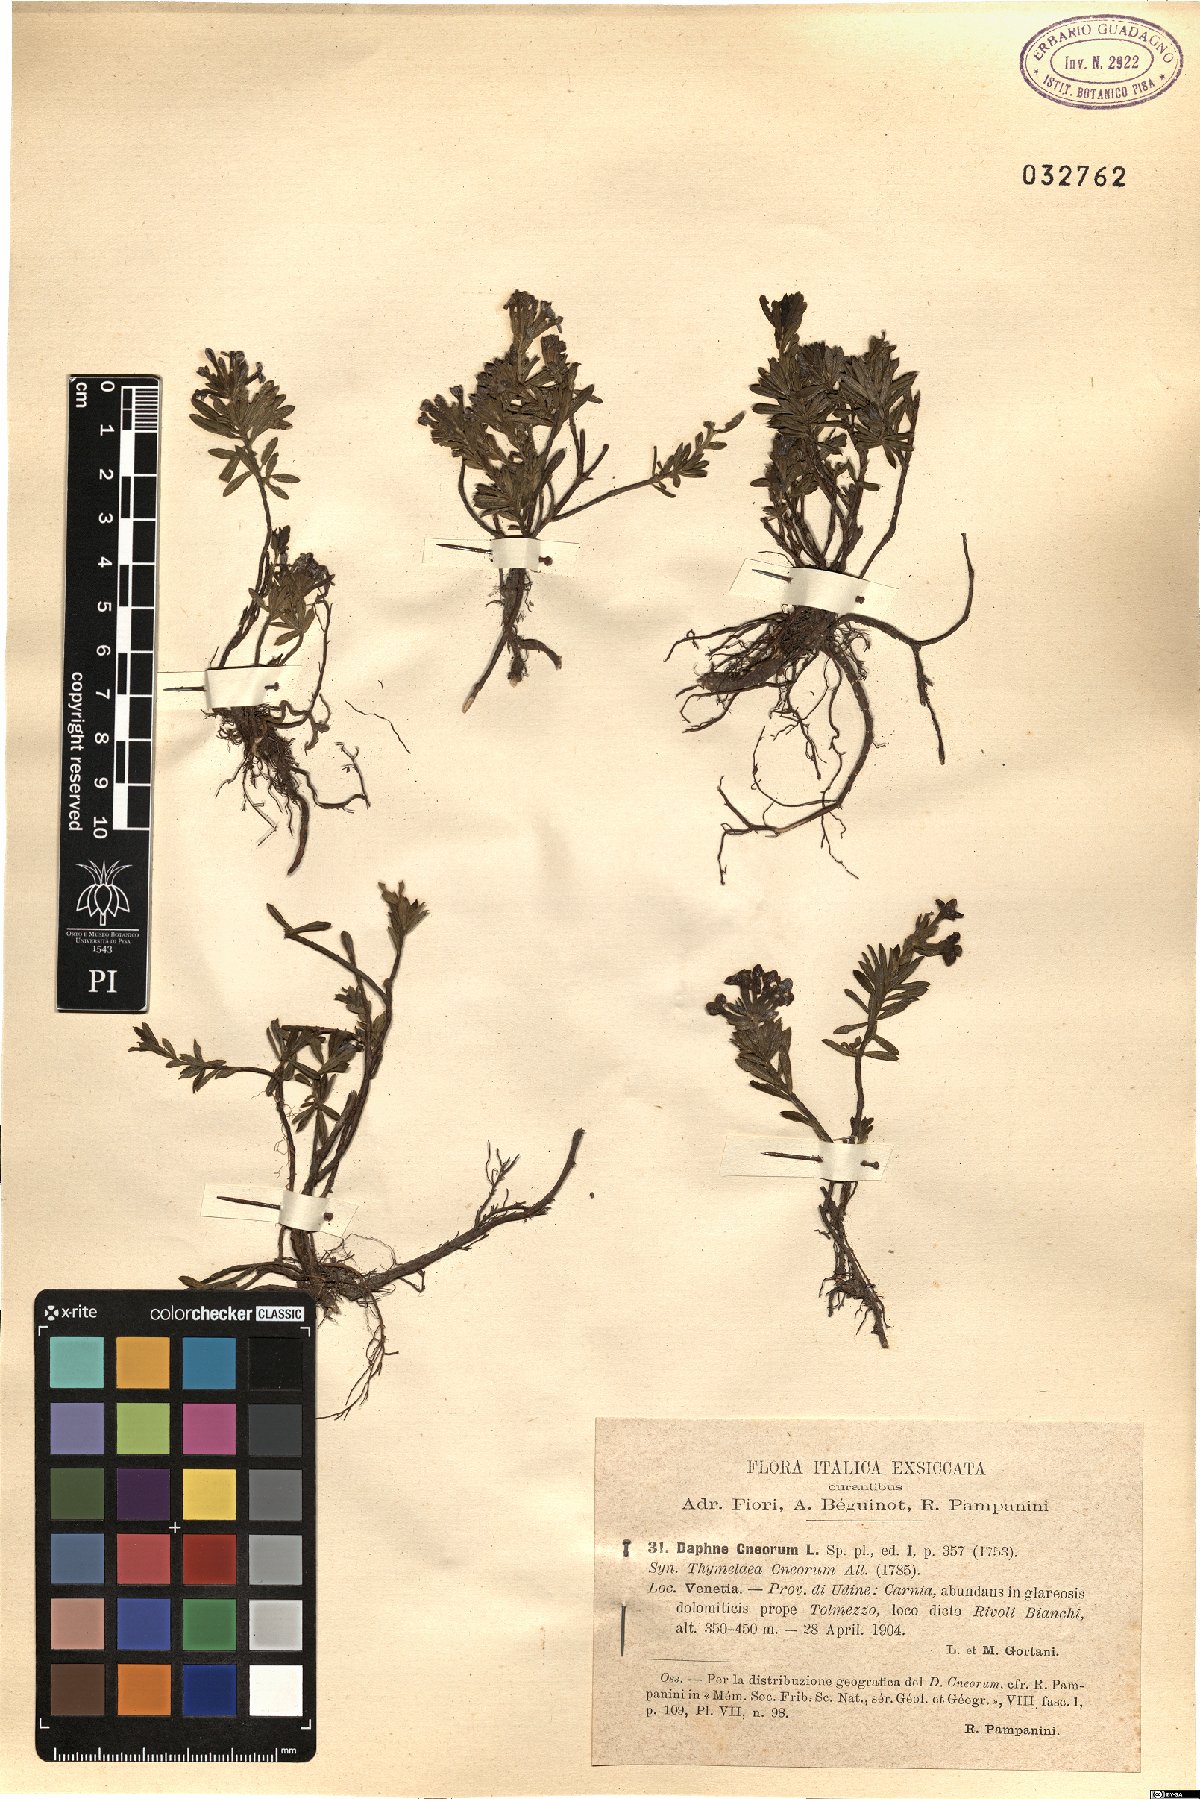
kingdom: Plantae
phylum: Tracheophyta
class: Magnoliopsida
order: Malvales
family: Thymelaeaceae
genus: Daphne
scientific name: Daphne cneorum
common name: Garland-flower
